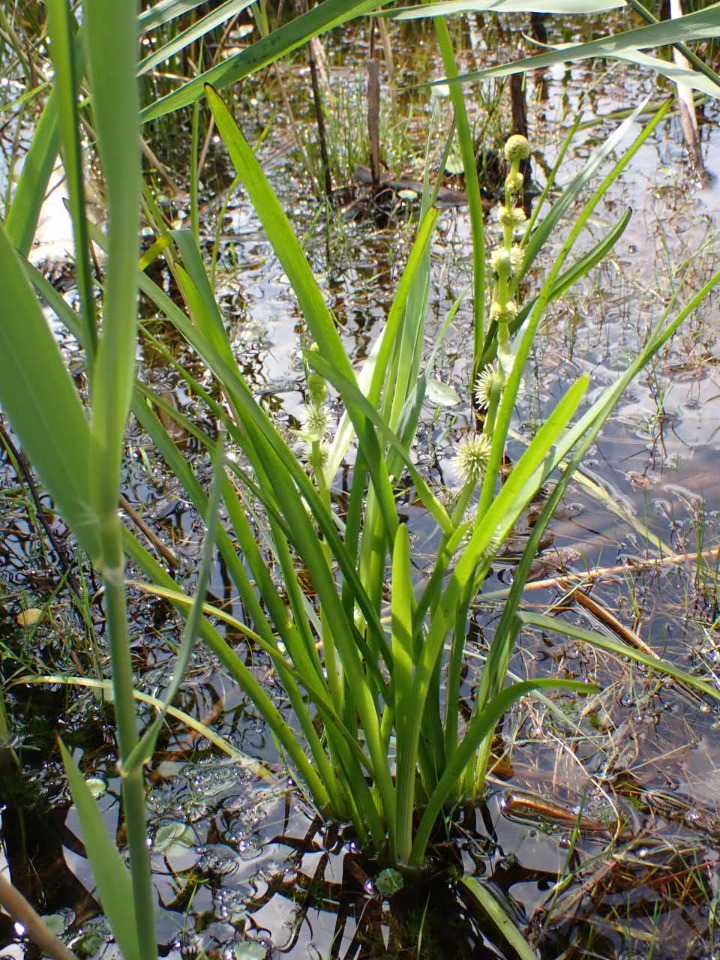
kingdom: Plantae
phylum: Tracheophyta
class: Liliopsida
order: Poales
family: Typhaceae
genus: Sparganium
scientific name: Sparganium emersum
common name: Enkelt pindsvineknop
